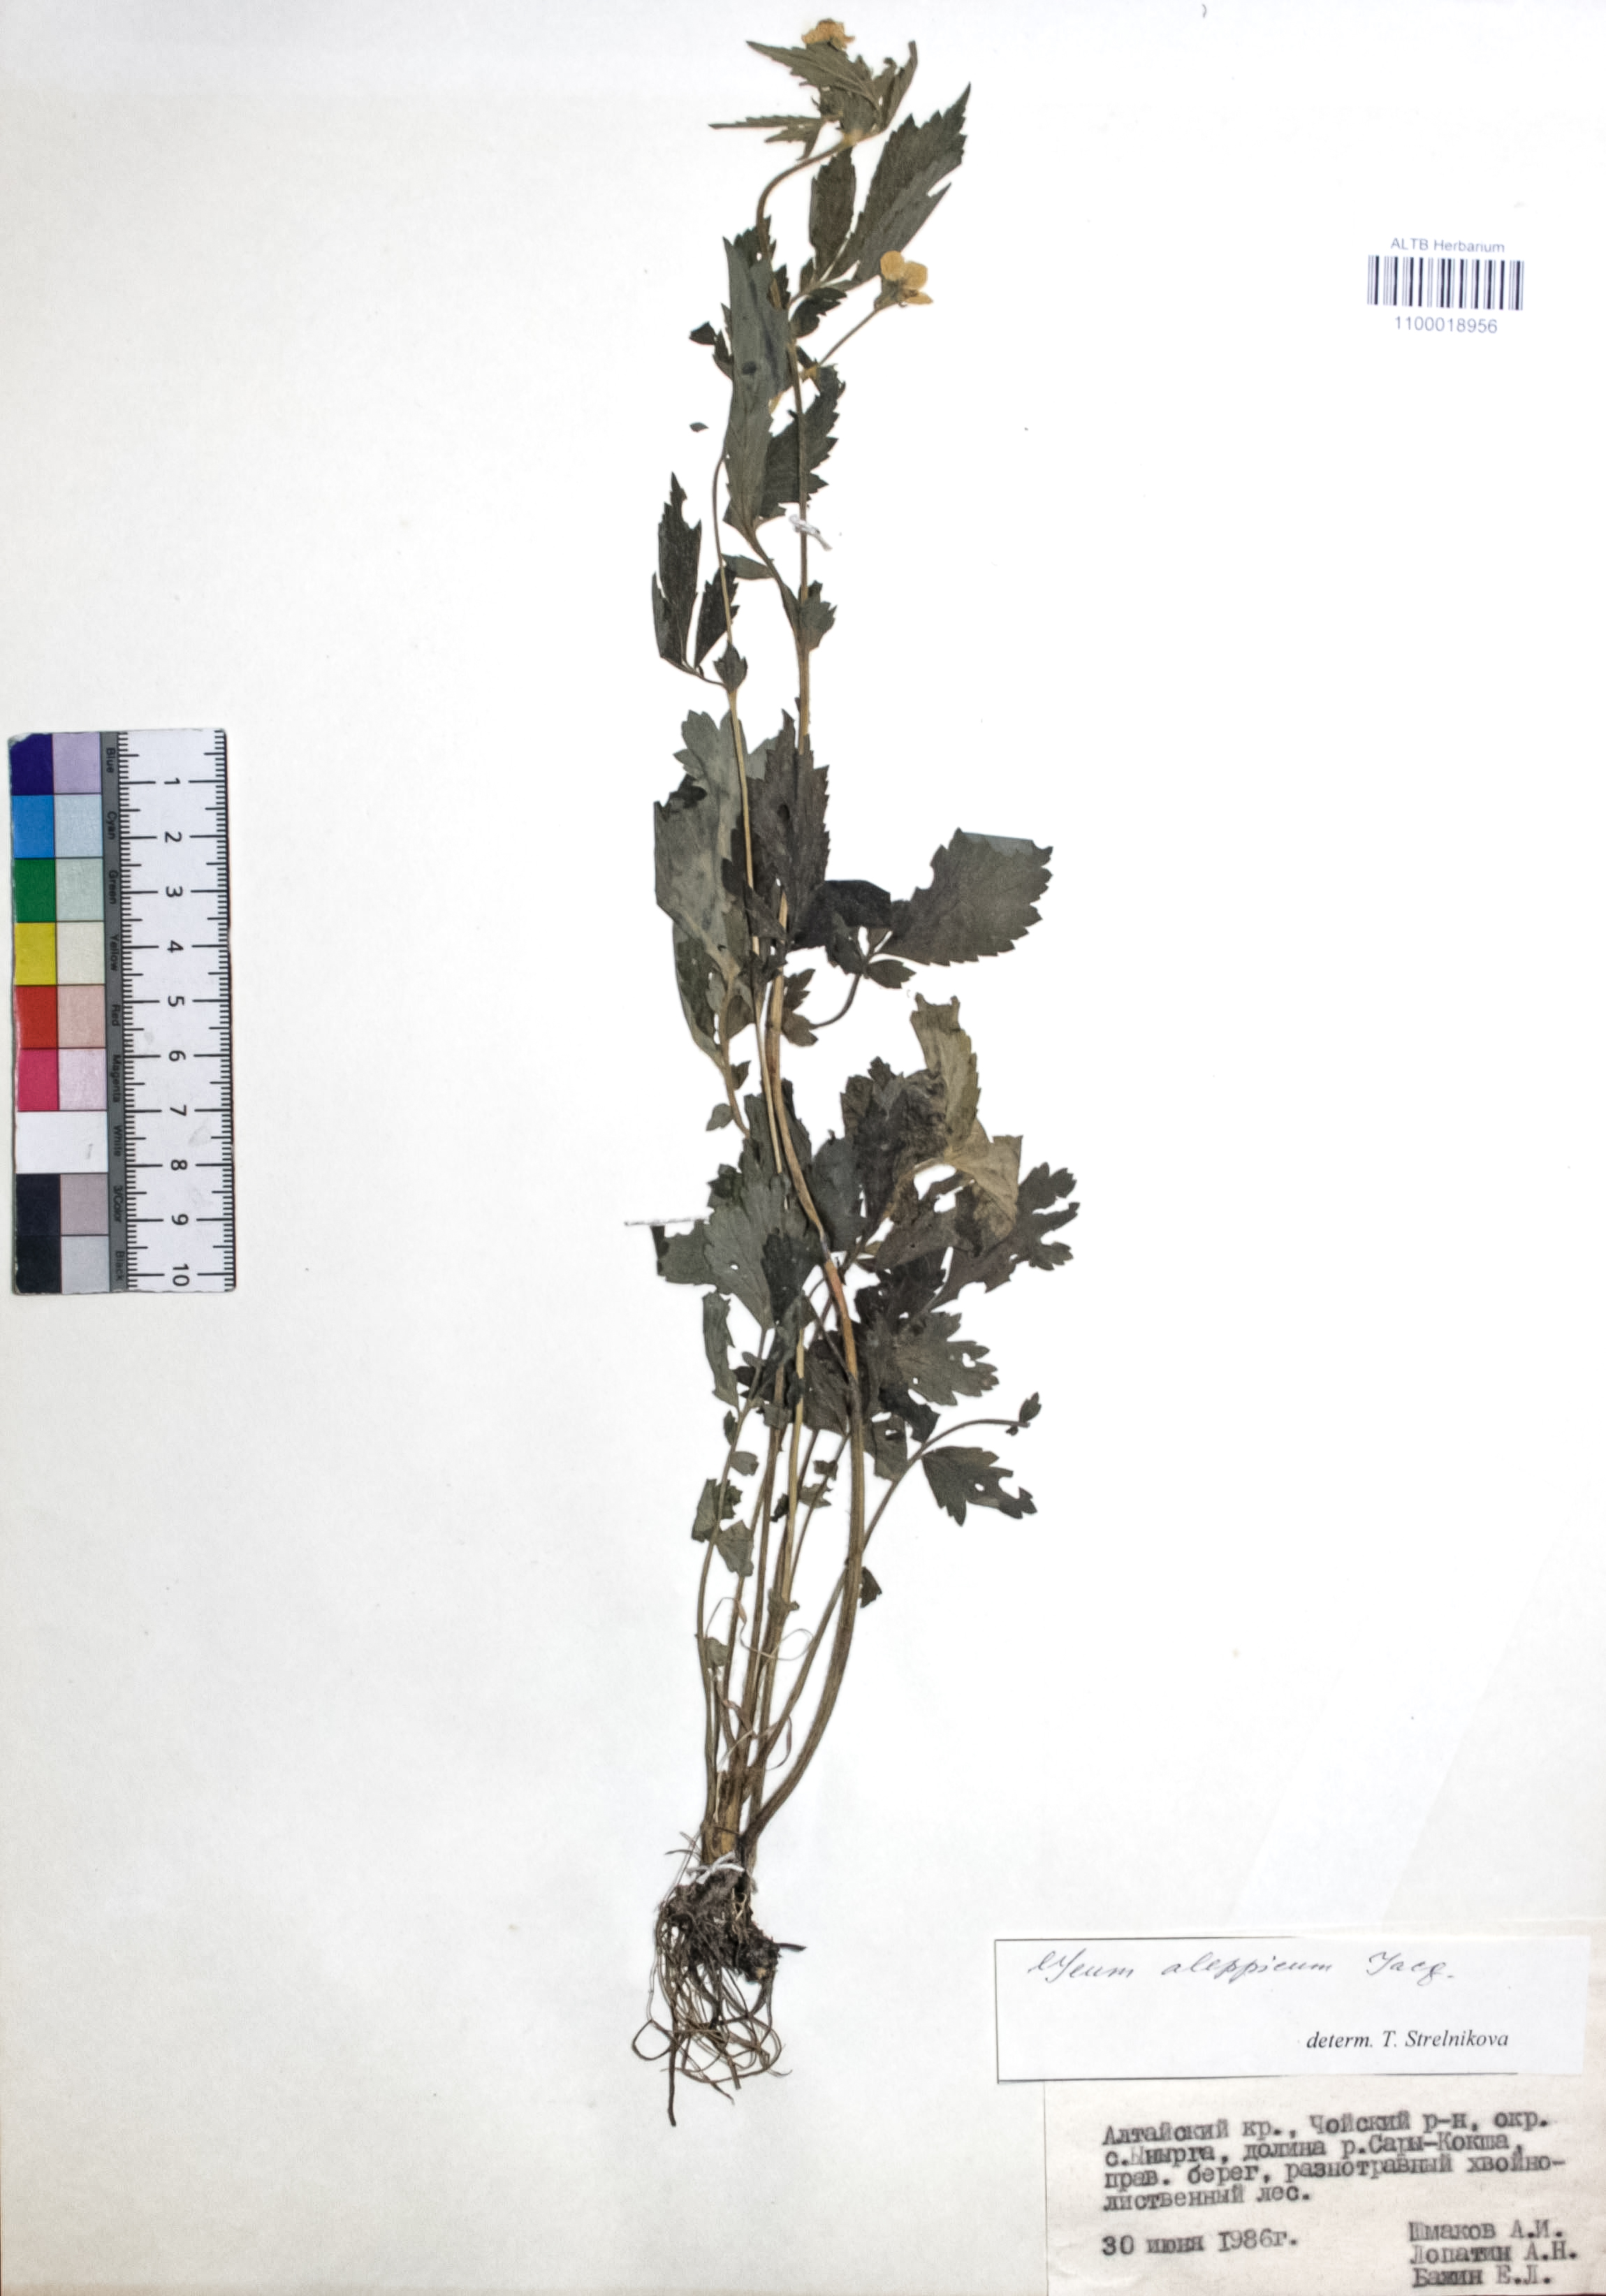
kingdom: Plantae
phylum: Tracheophyta
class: Magnoliopsida
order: Rosales
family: Rosaceae
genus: Geum
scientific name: Geum aleppicum
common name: Yellow avens
